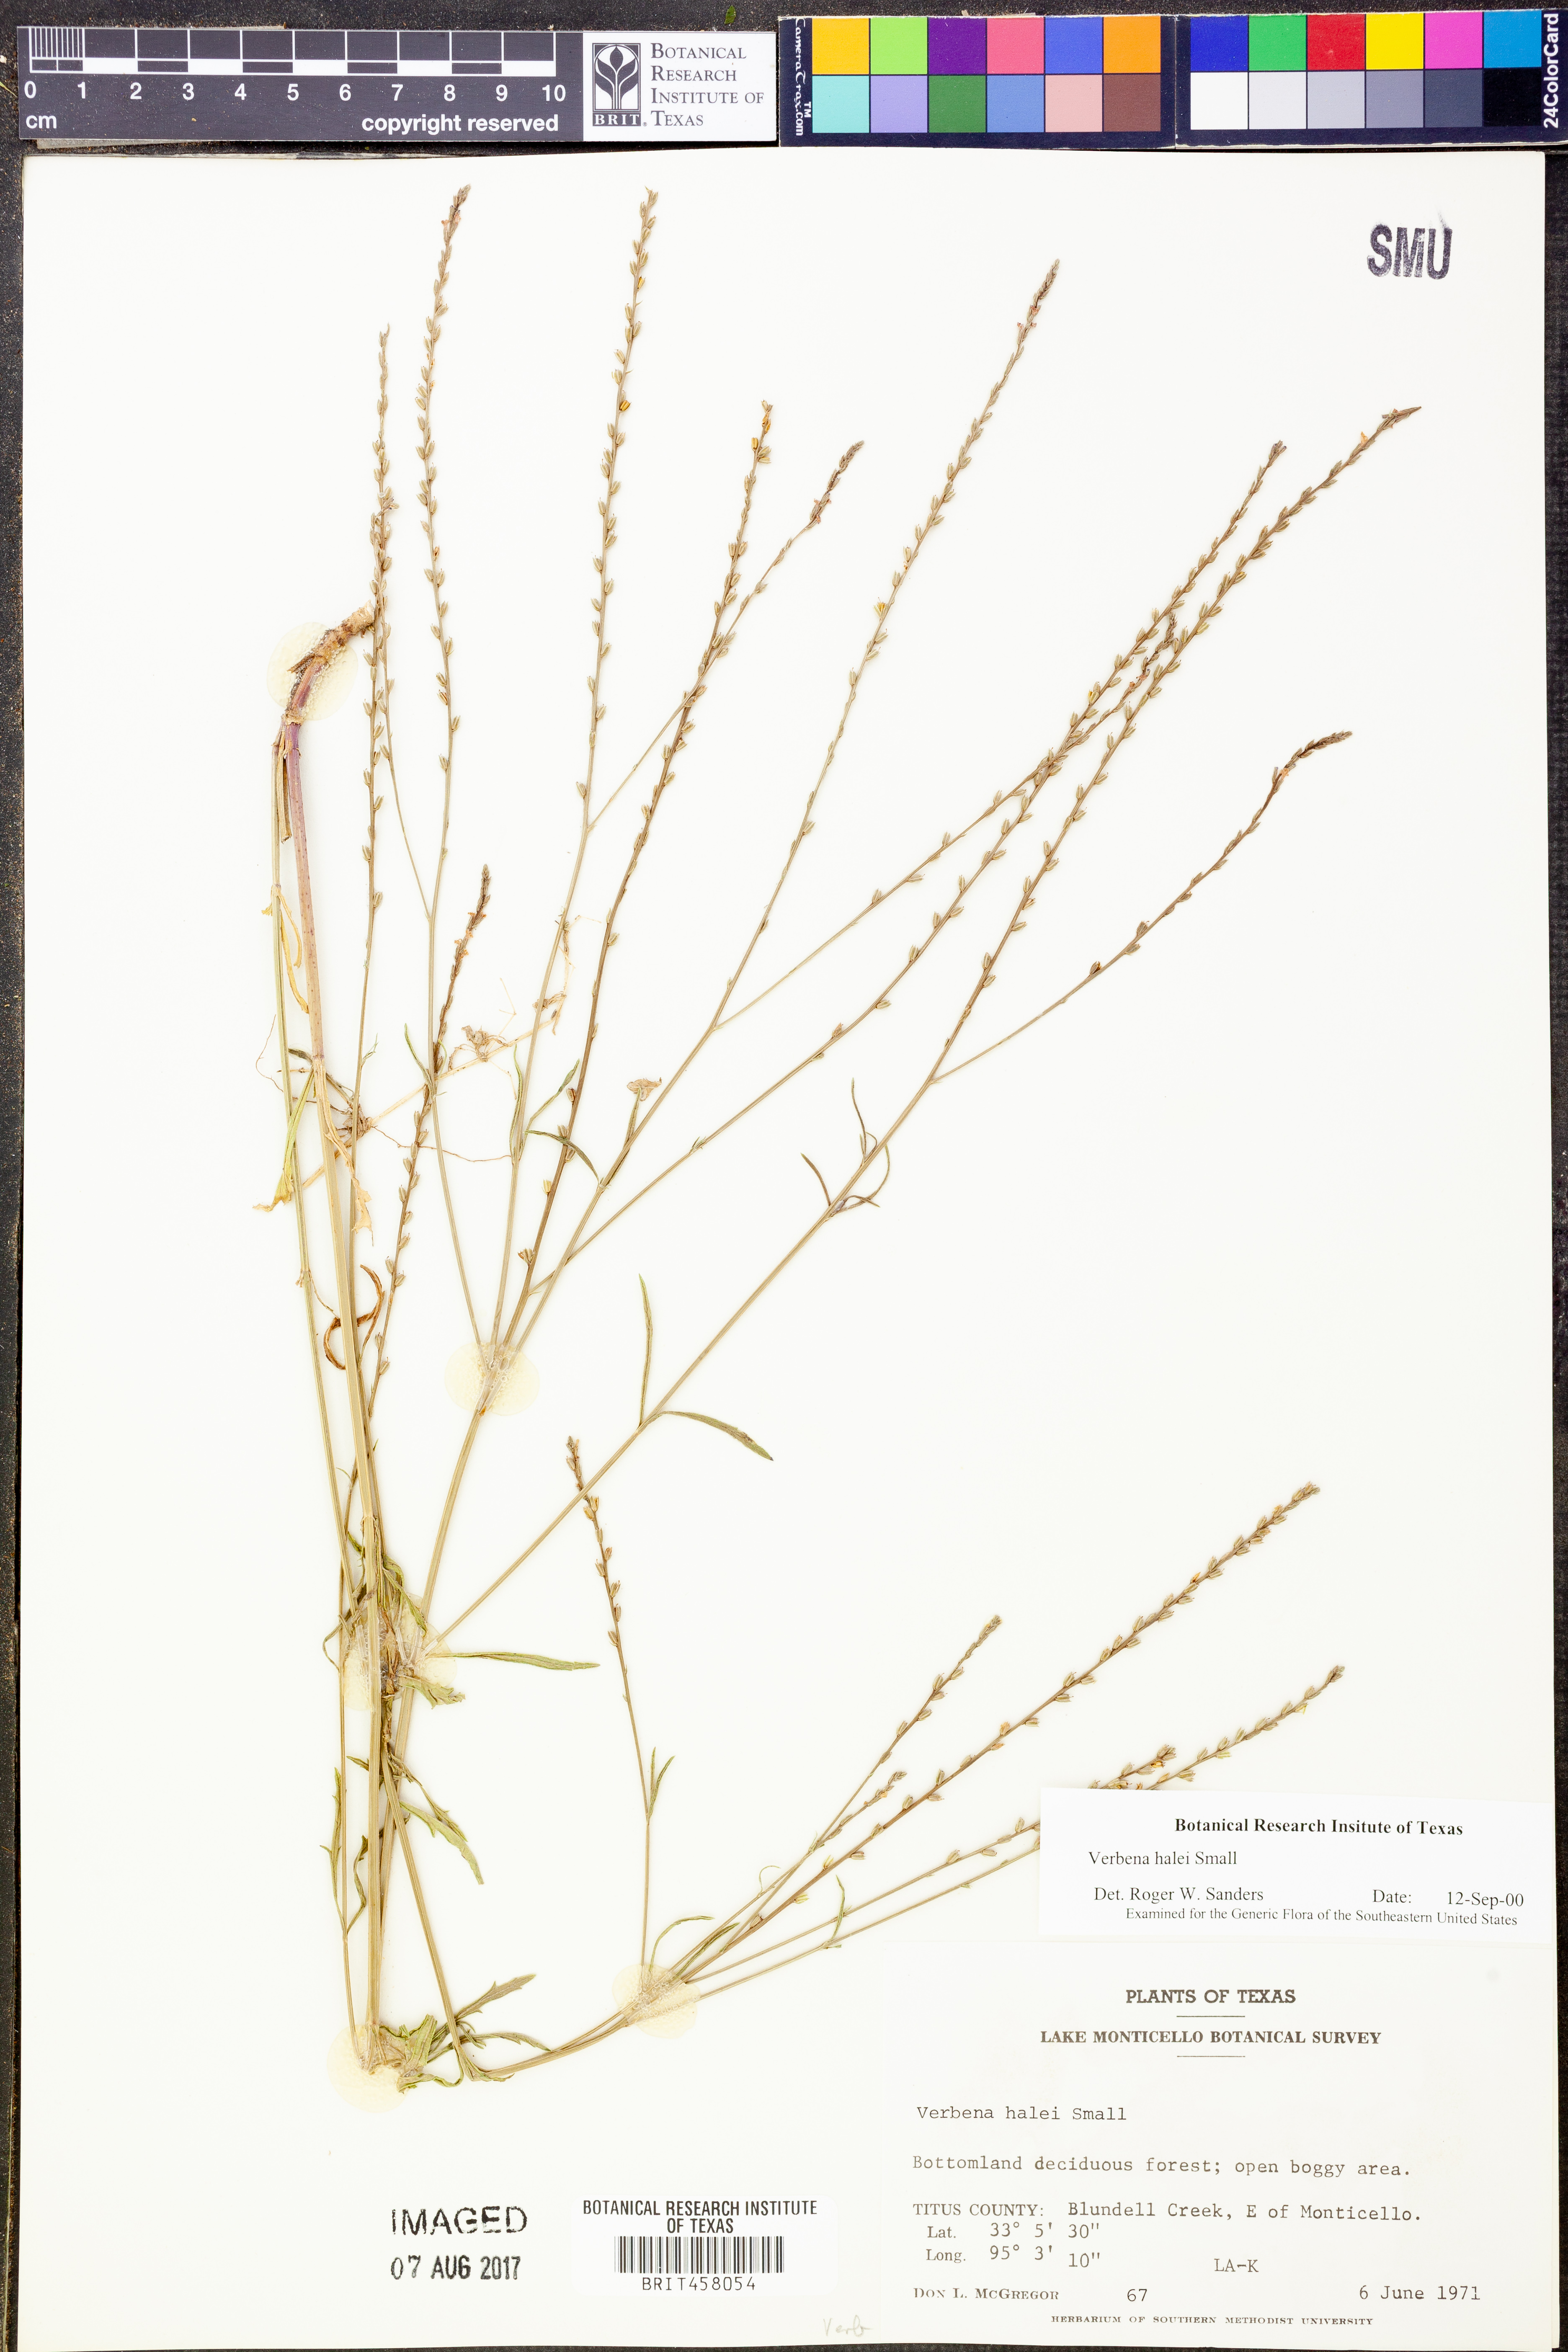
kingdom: Plantae
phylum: Tracheophyta
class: Magnoliopsida
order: Lamiales
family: Verbenaceae
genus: Verbena
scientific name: Verbena halei
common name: Texas vervain
